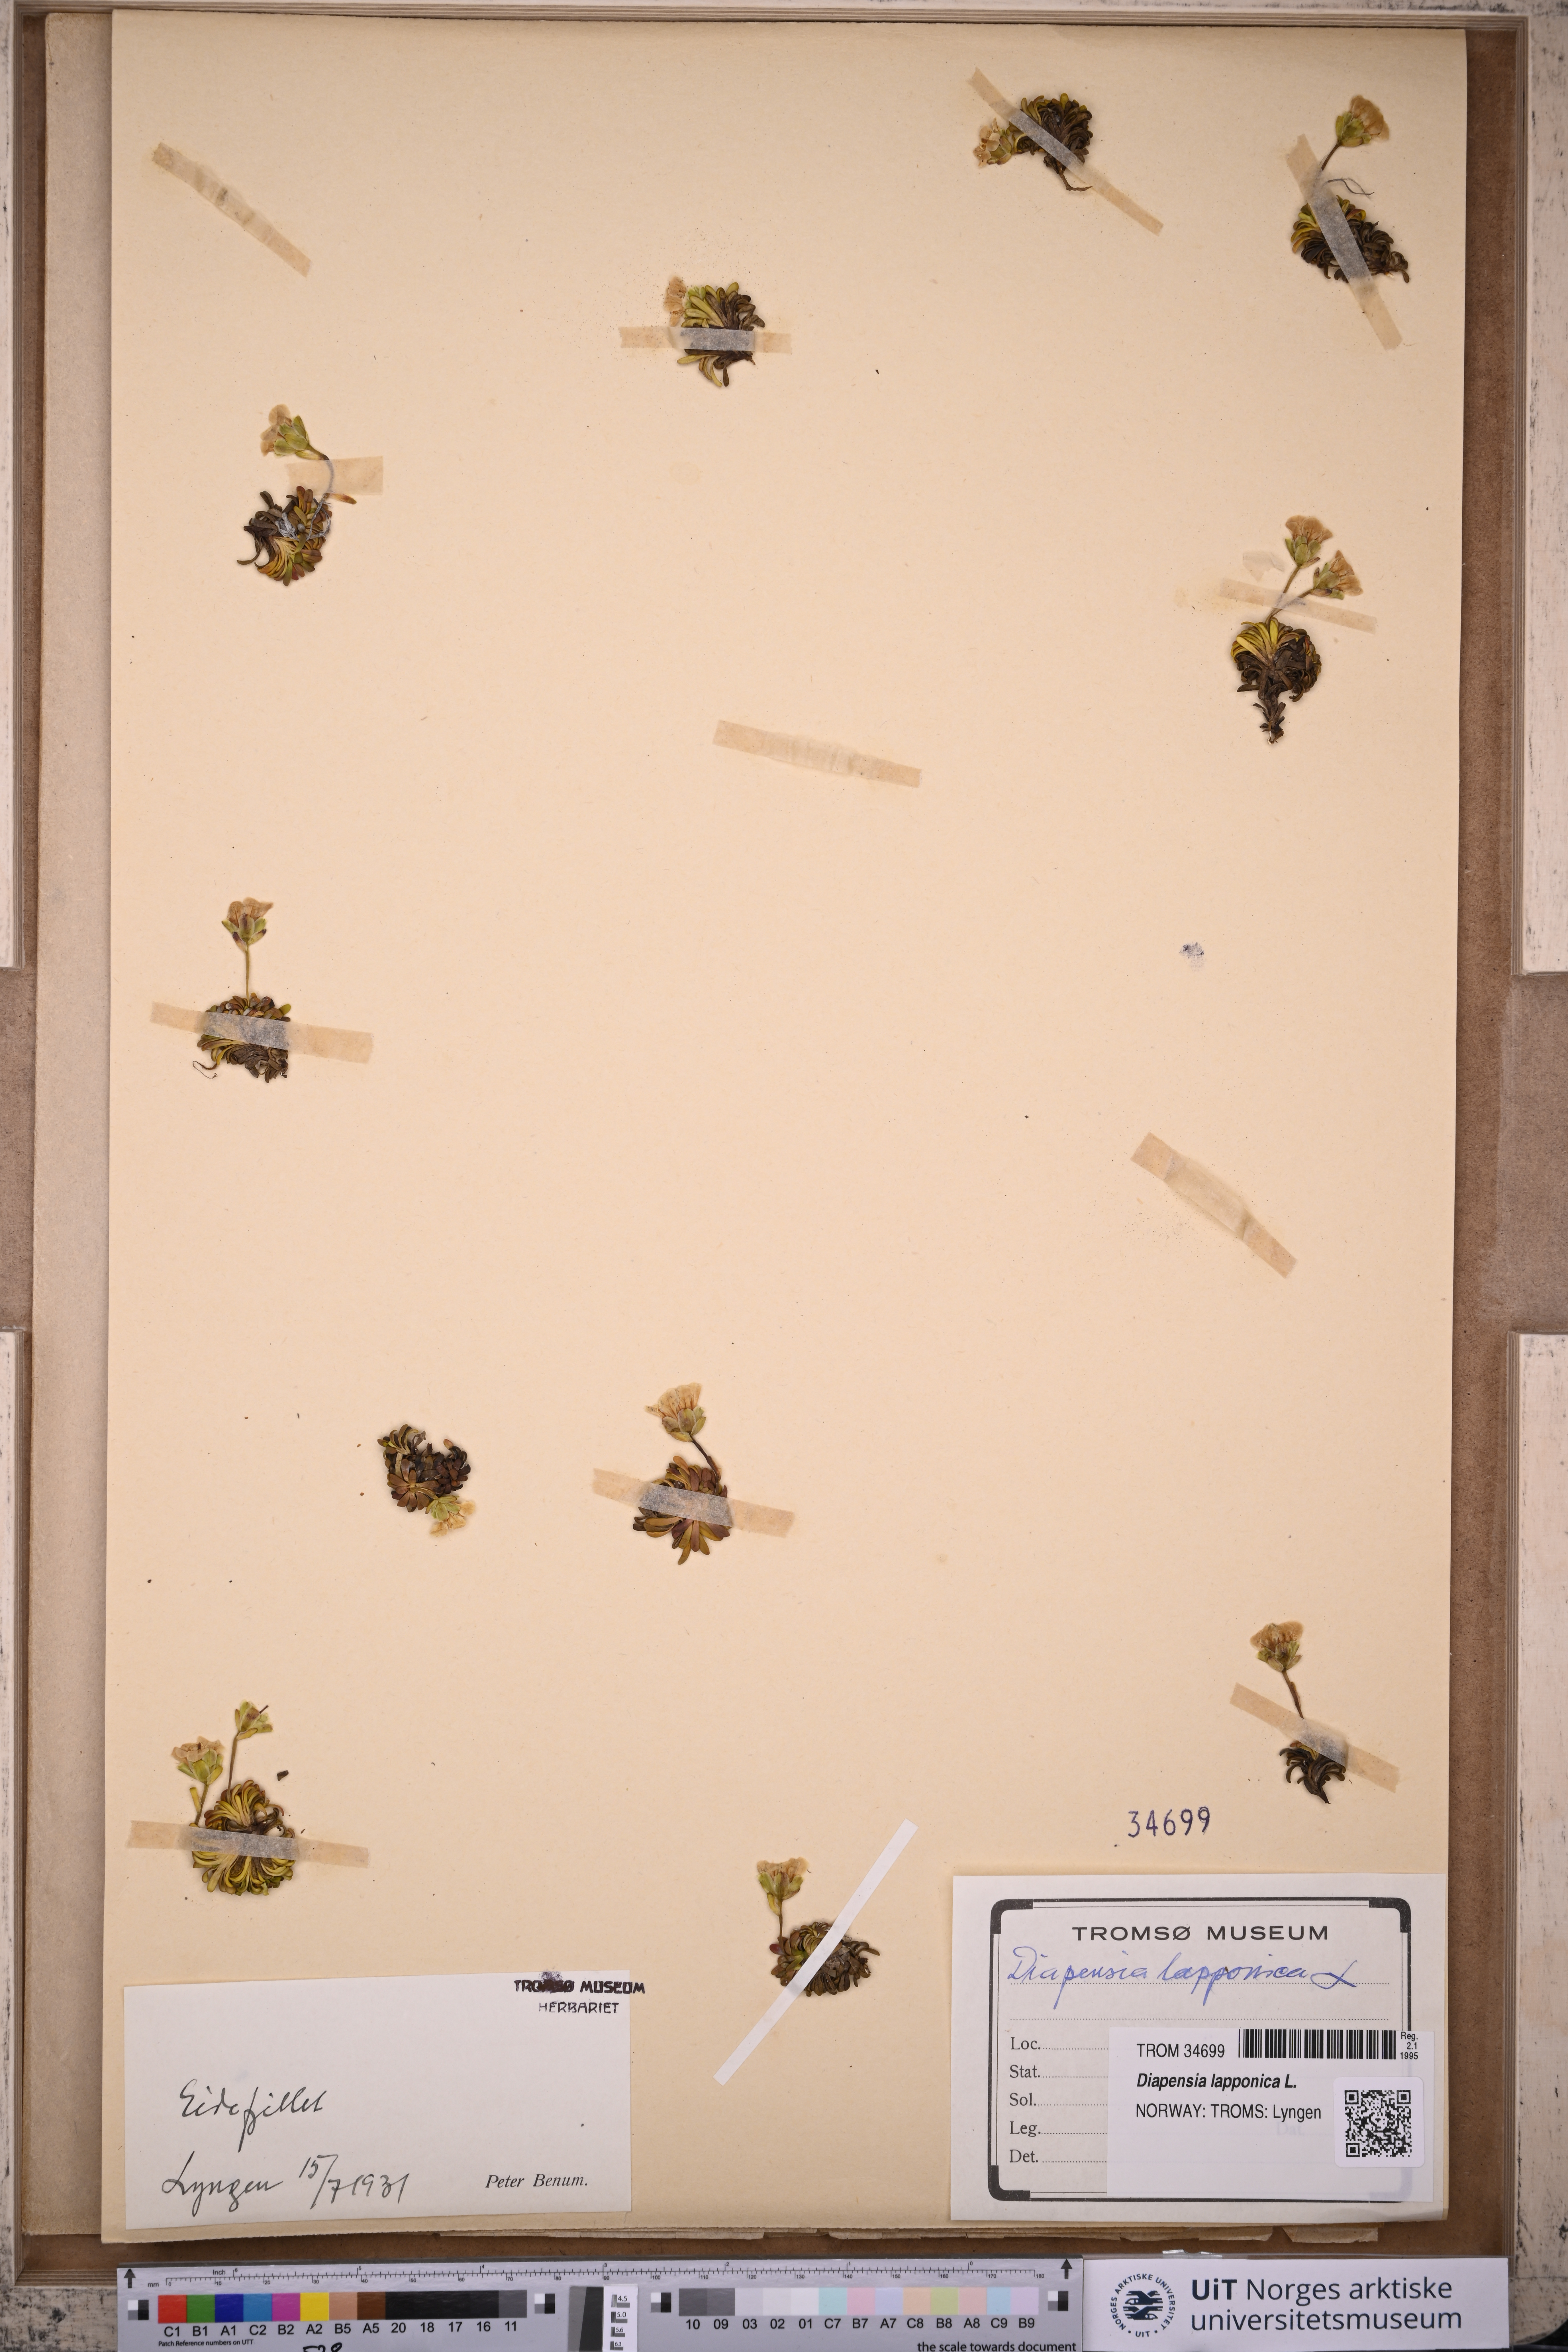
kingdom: Plantae
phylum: Tracheophyta
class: Magnoliopsida
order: Ericales
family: Diapensiaceae
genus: Diapensia
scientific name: Diapensia lapponica
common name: Diapensia
